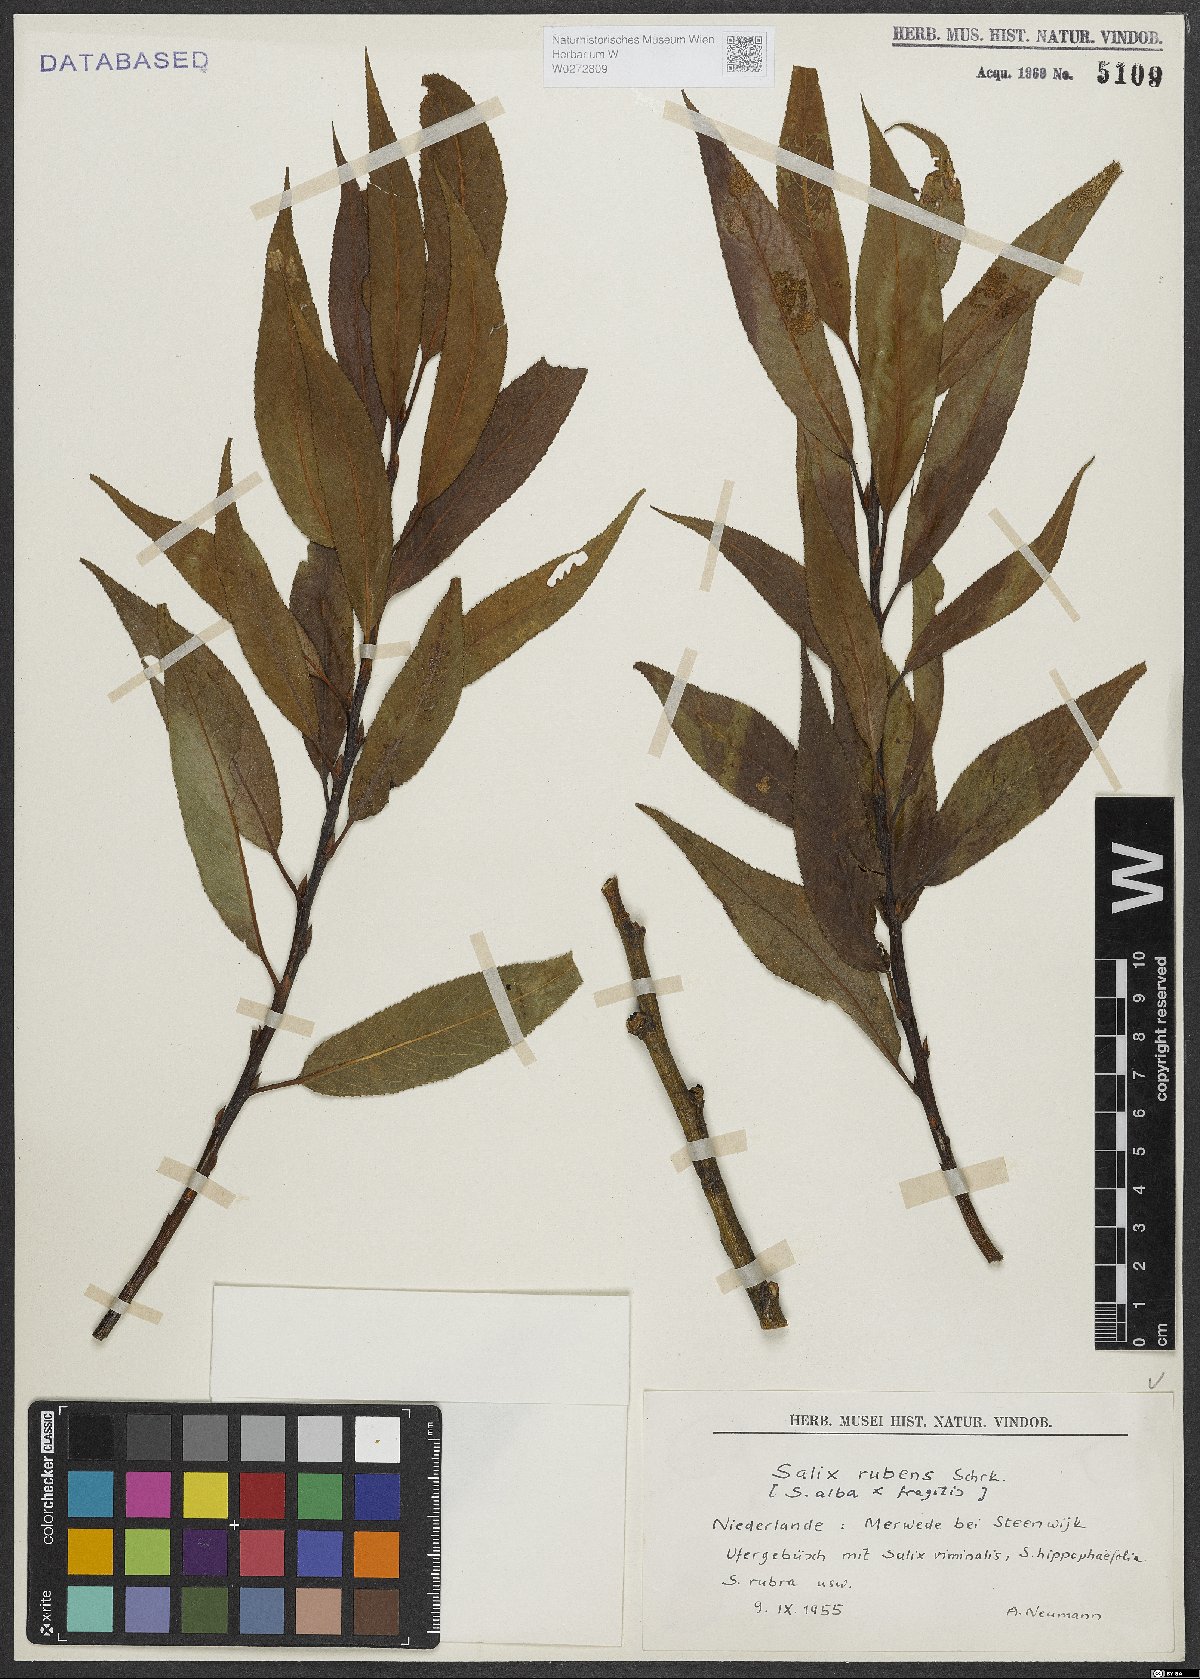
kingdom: Plantae
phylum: Tracheophyta
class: Magnoliopsida
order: Malpighiales
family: Salicaceae
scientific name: Salicaceae
